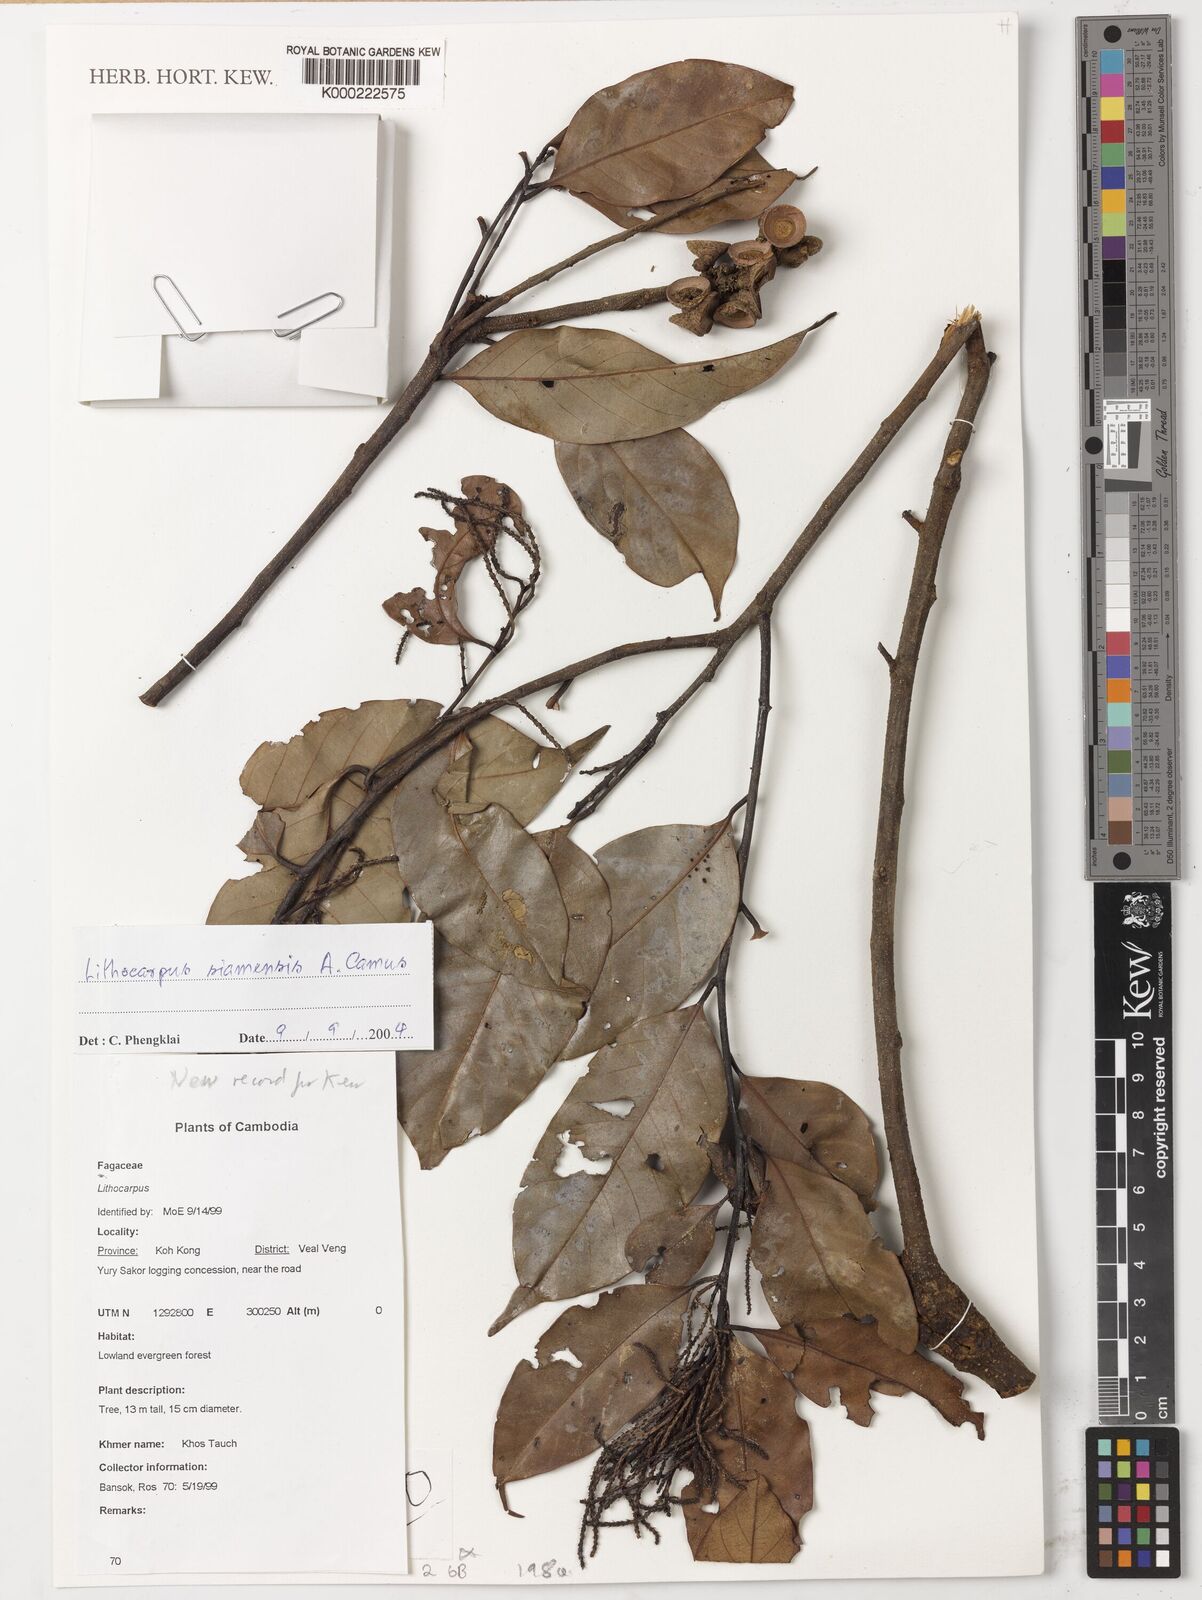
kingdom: Plantae
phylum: Tracheophyta
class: Magnoliopsida
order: Fagales
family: Fagaceae
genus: Lithocarpus
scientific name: Lithocarpus siamensis
